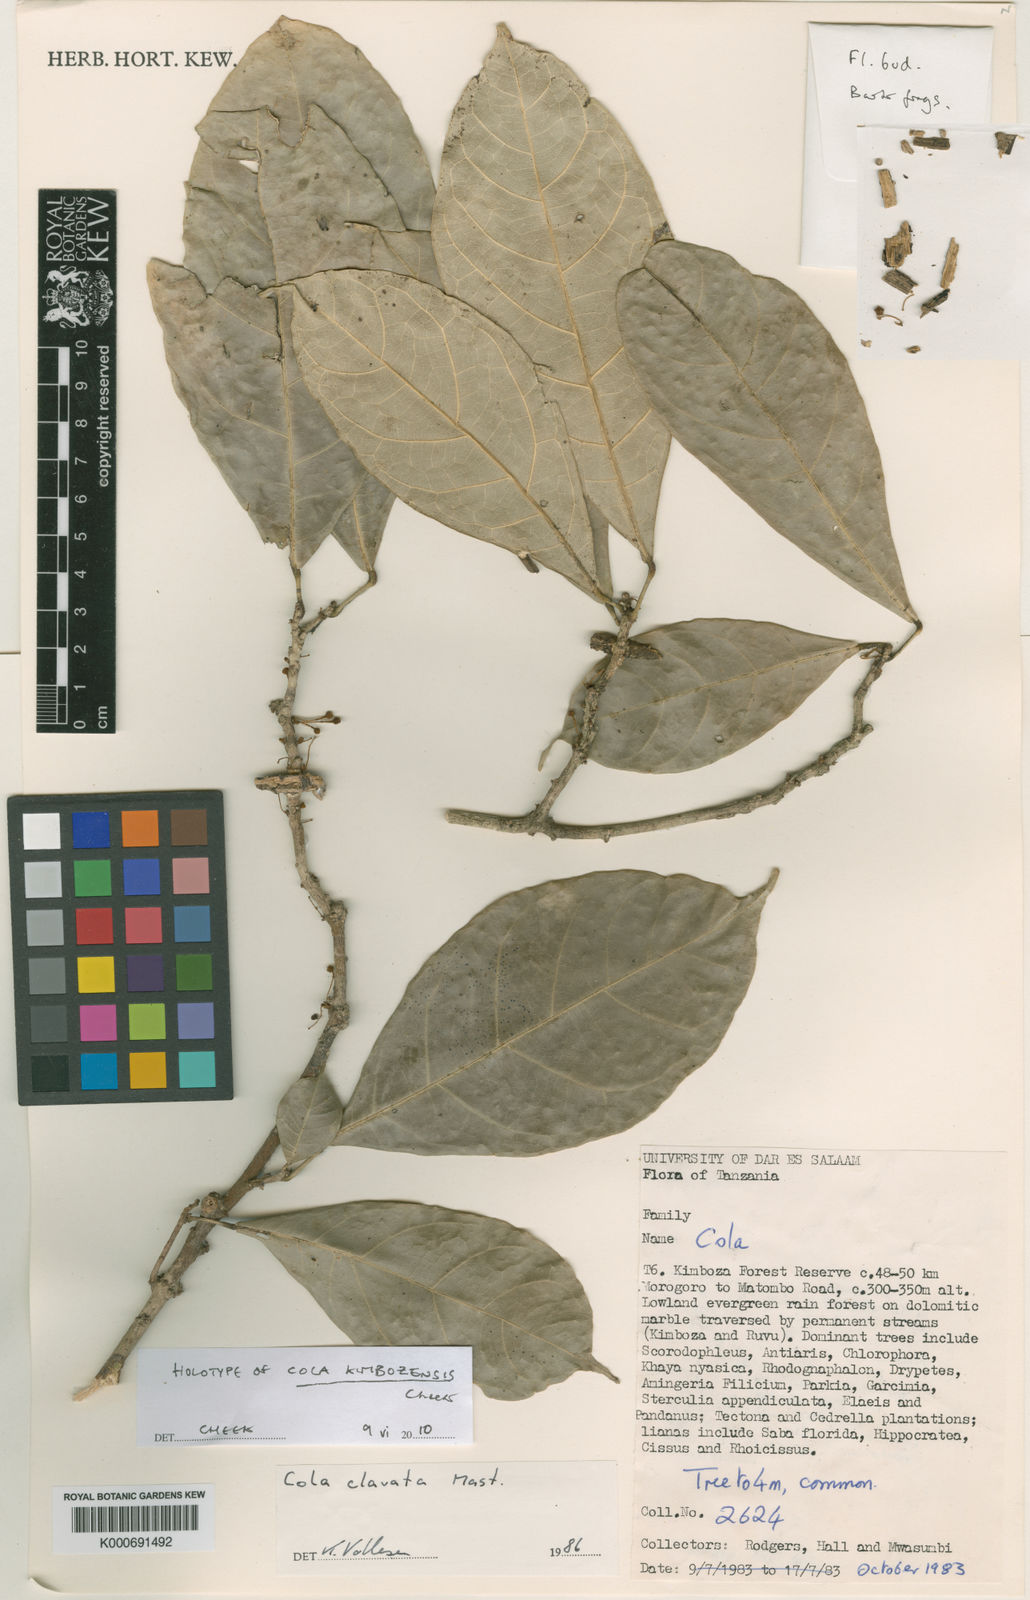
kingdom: Plantae
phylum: Tracheophyta
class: Magnoliopsida
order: Malvales
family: Malvaceae
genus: Cola
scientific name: Cola kimbozensis
